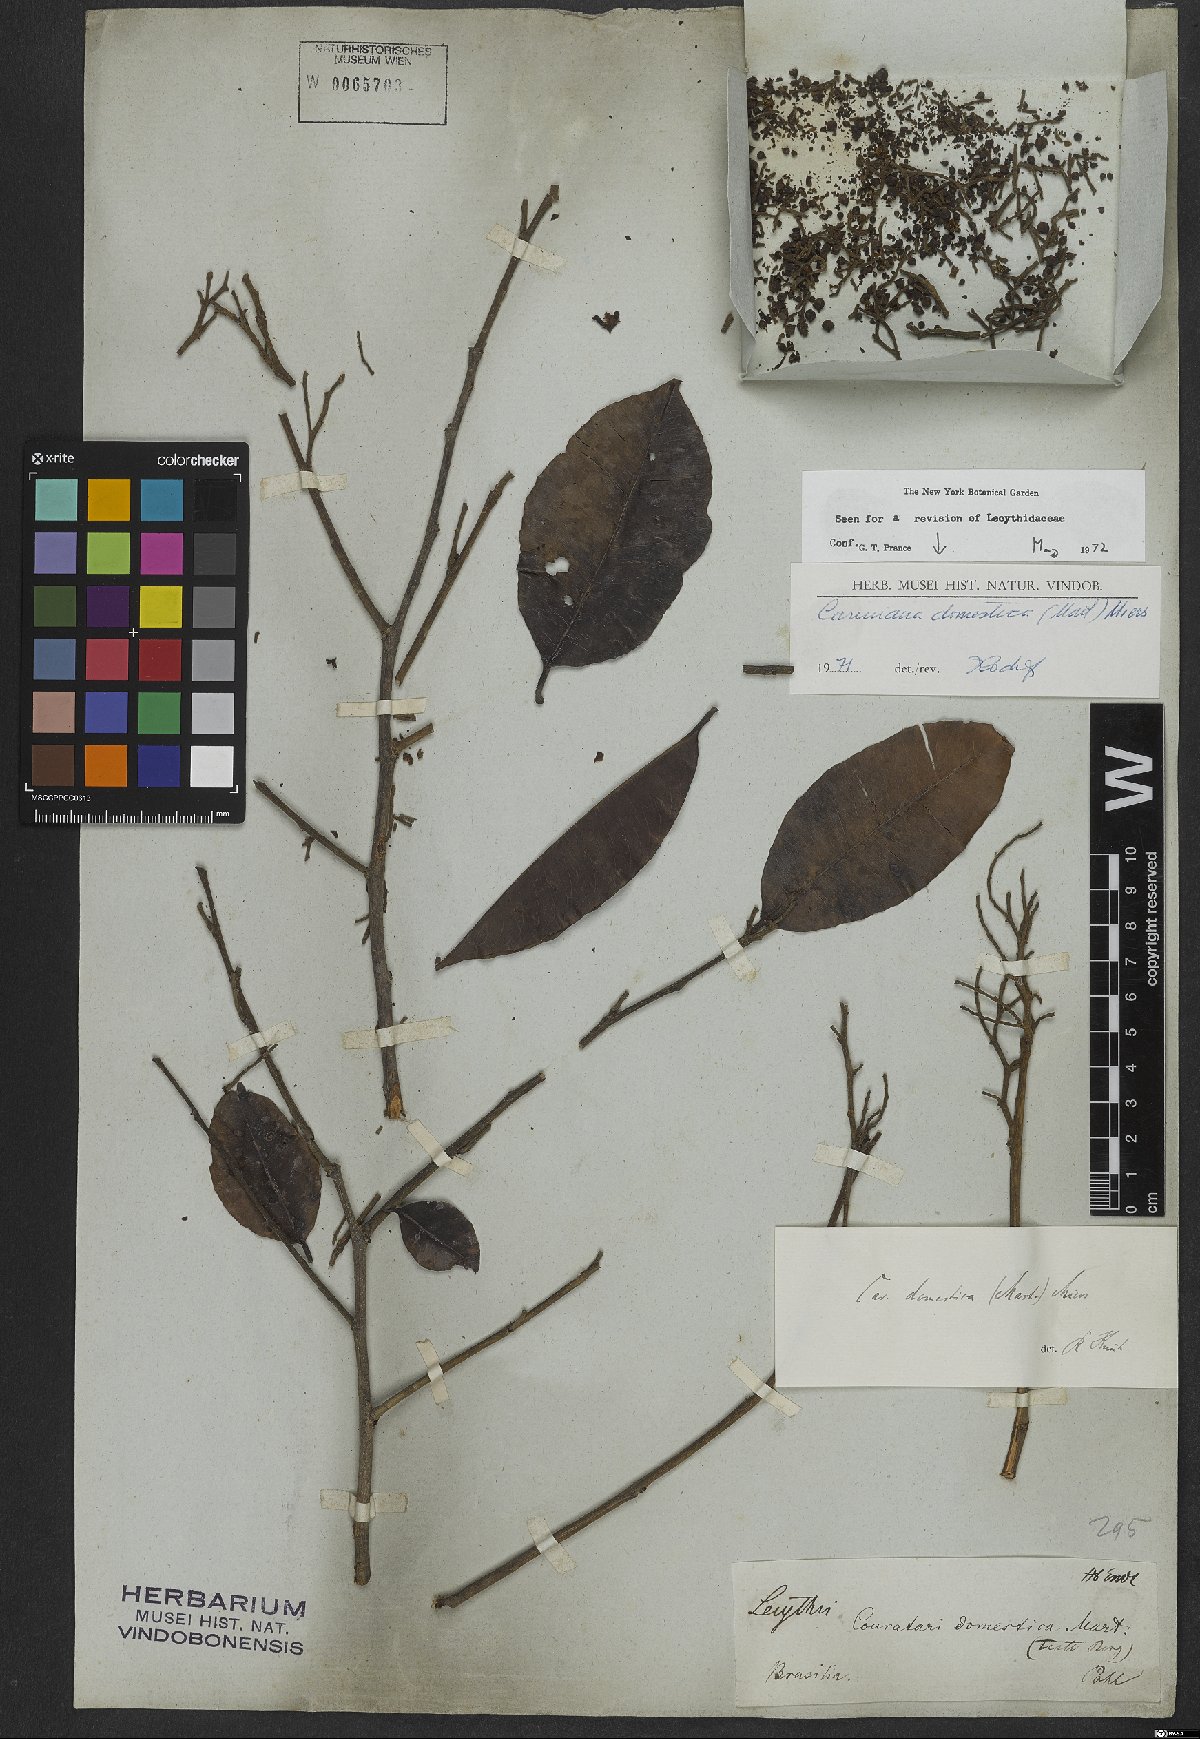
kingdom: Plantae
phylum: Tracheophyta
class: Magnoliopsida
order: Ericales
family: Lecythidaceae
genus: Cariniana
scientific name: Cariniana domestica
